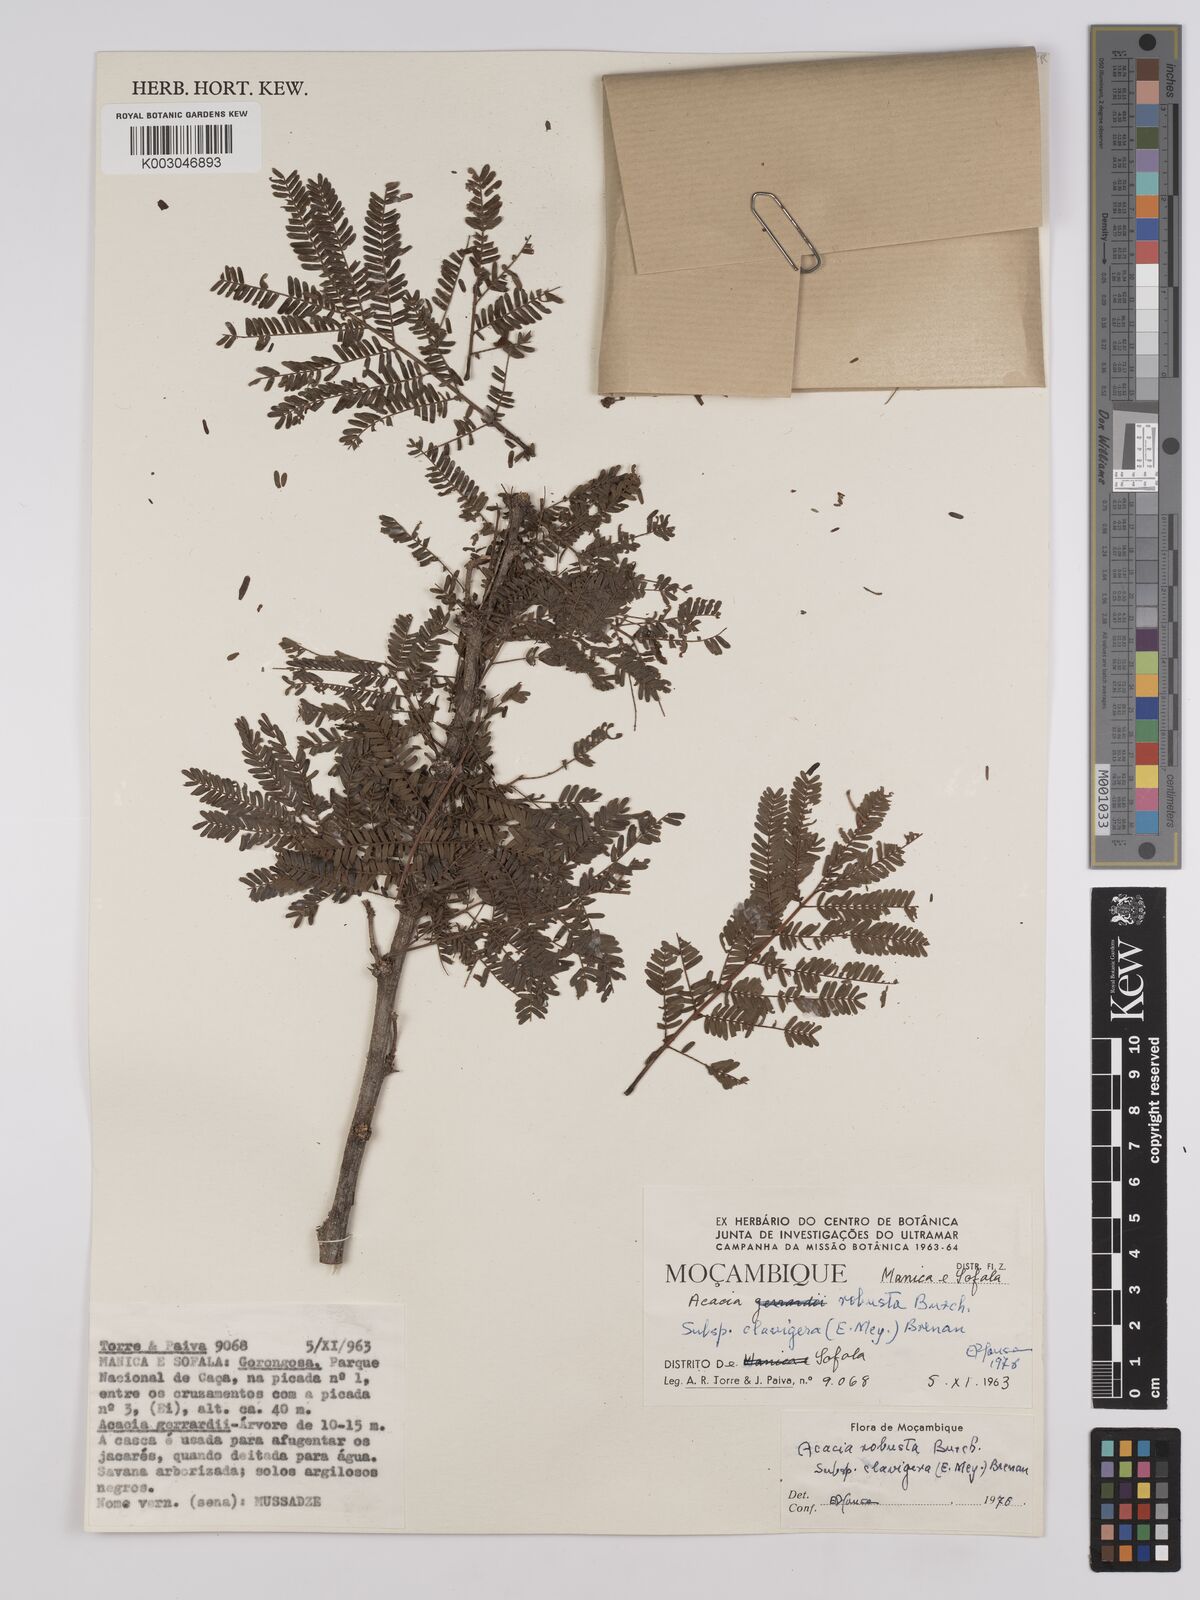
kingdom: Plantae
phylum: Tracheophyta
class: Magnoliopsida
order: Fabales
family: Fabaceae
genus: Vachellia
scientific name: Vachellia robusta
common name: Ankle thorn
